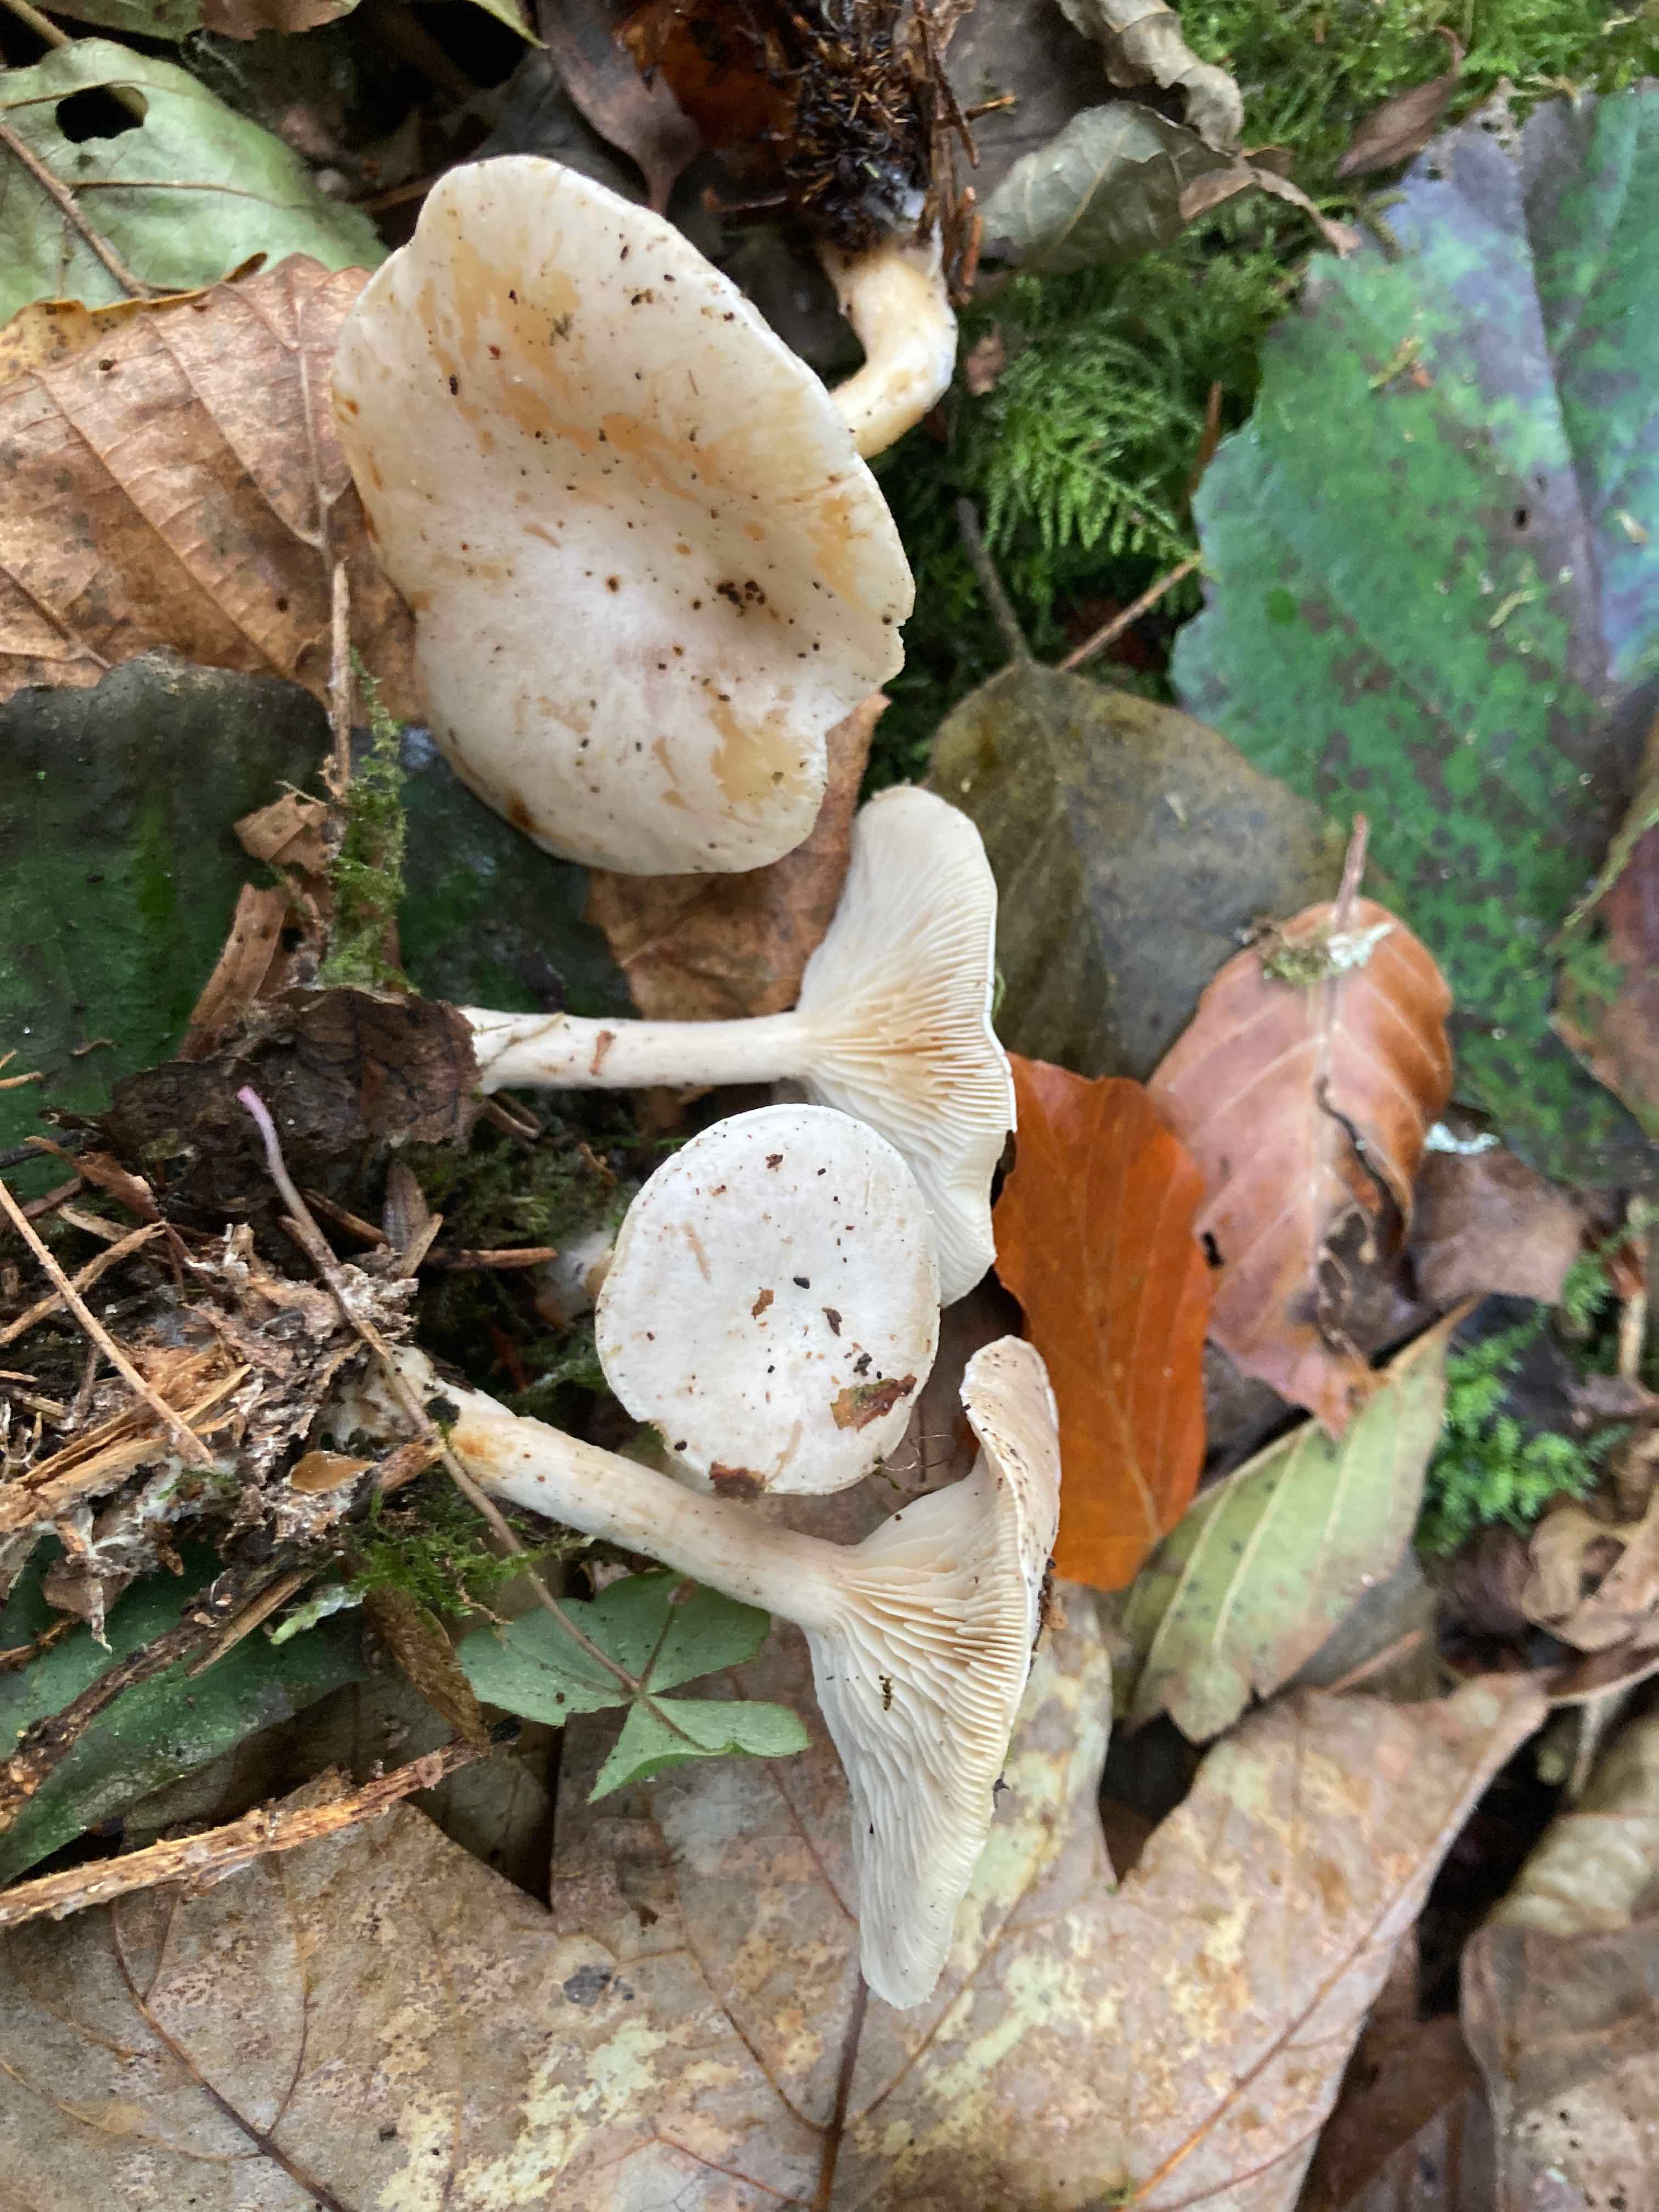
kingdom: Fungi
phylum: Basidiomycota
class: Agaricomycetes
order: Agaricales
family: Tricholomataceae
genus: Clitocybe
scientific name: Clitocybe phyllophila
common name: løv-tragthat
